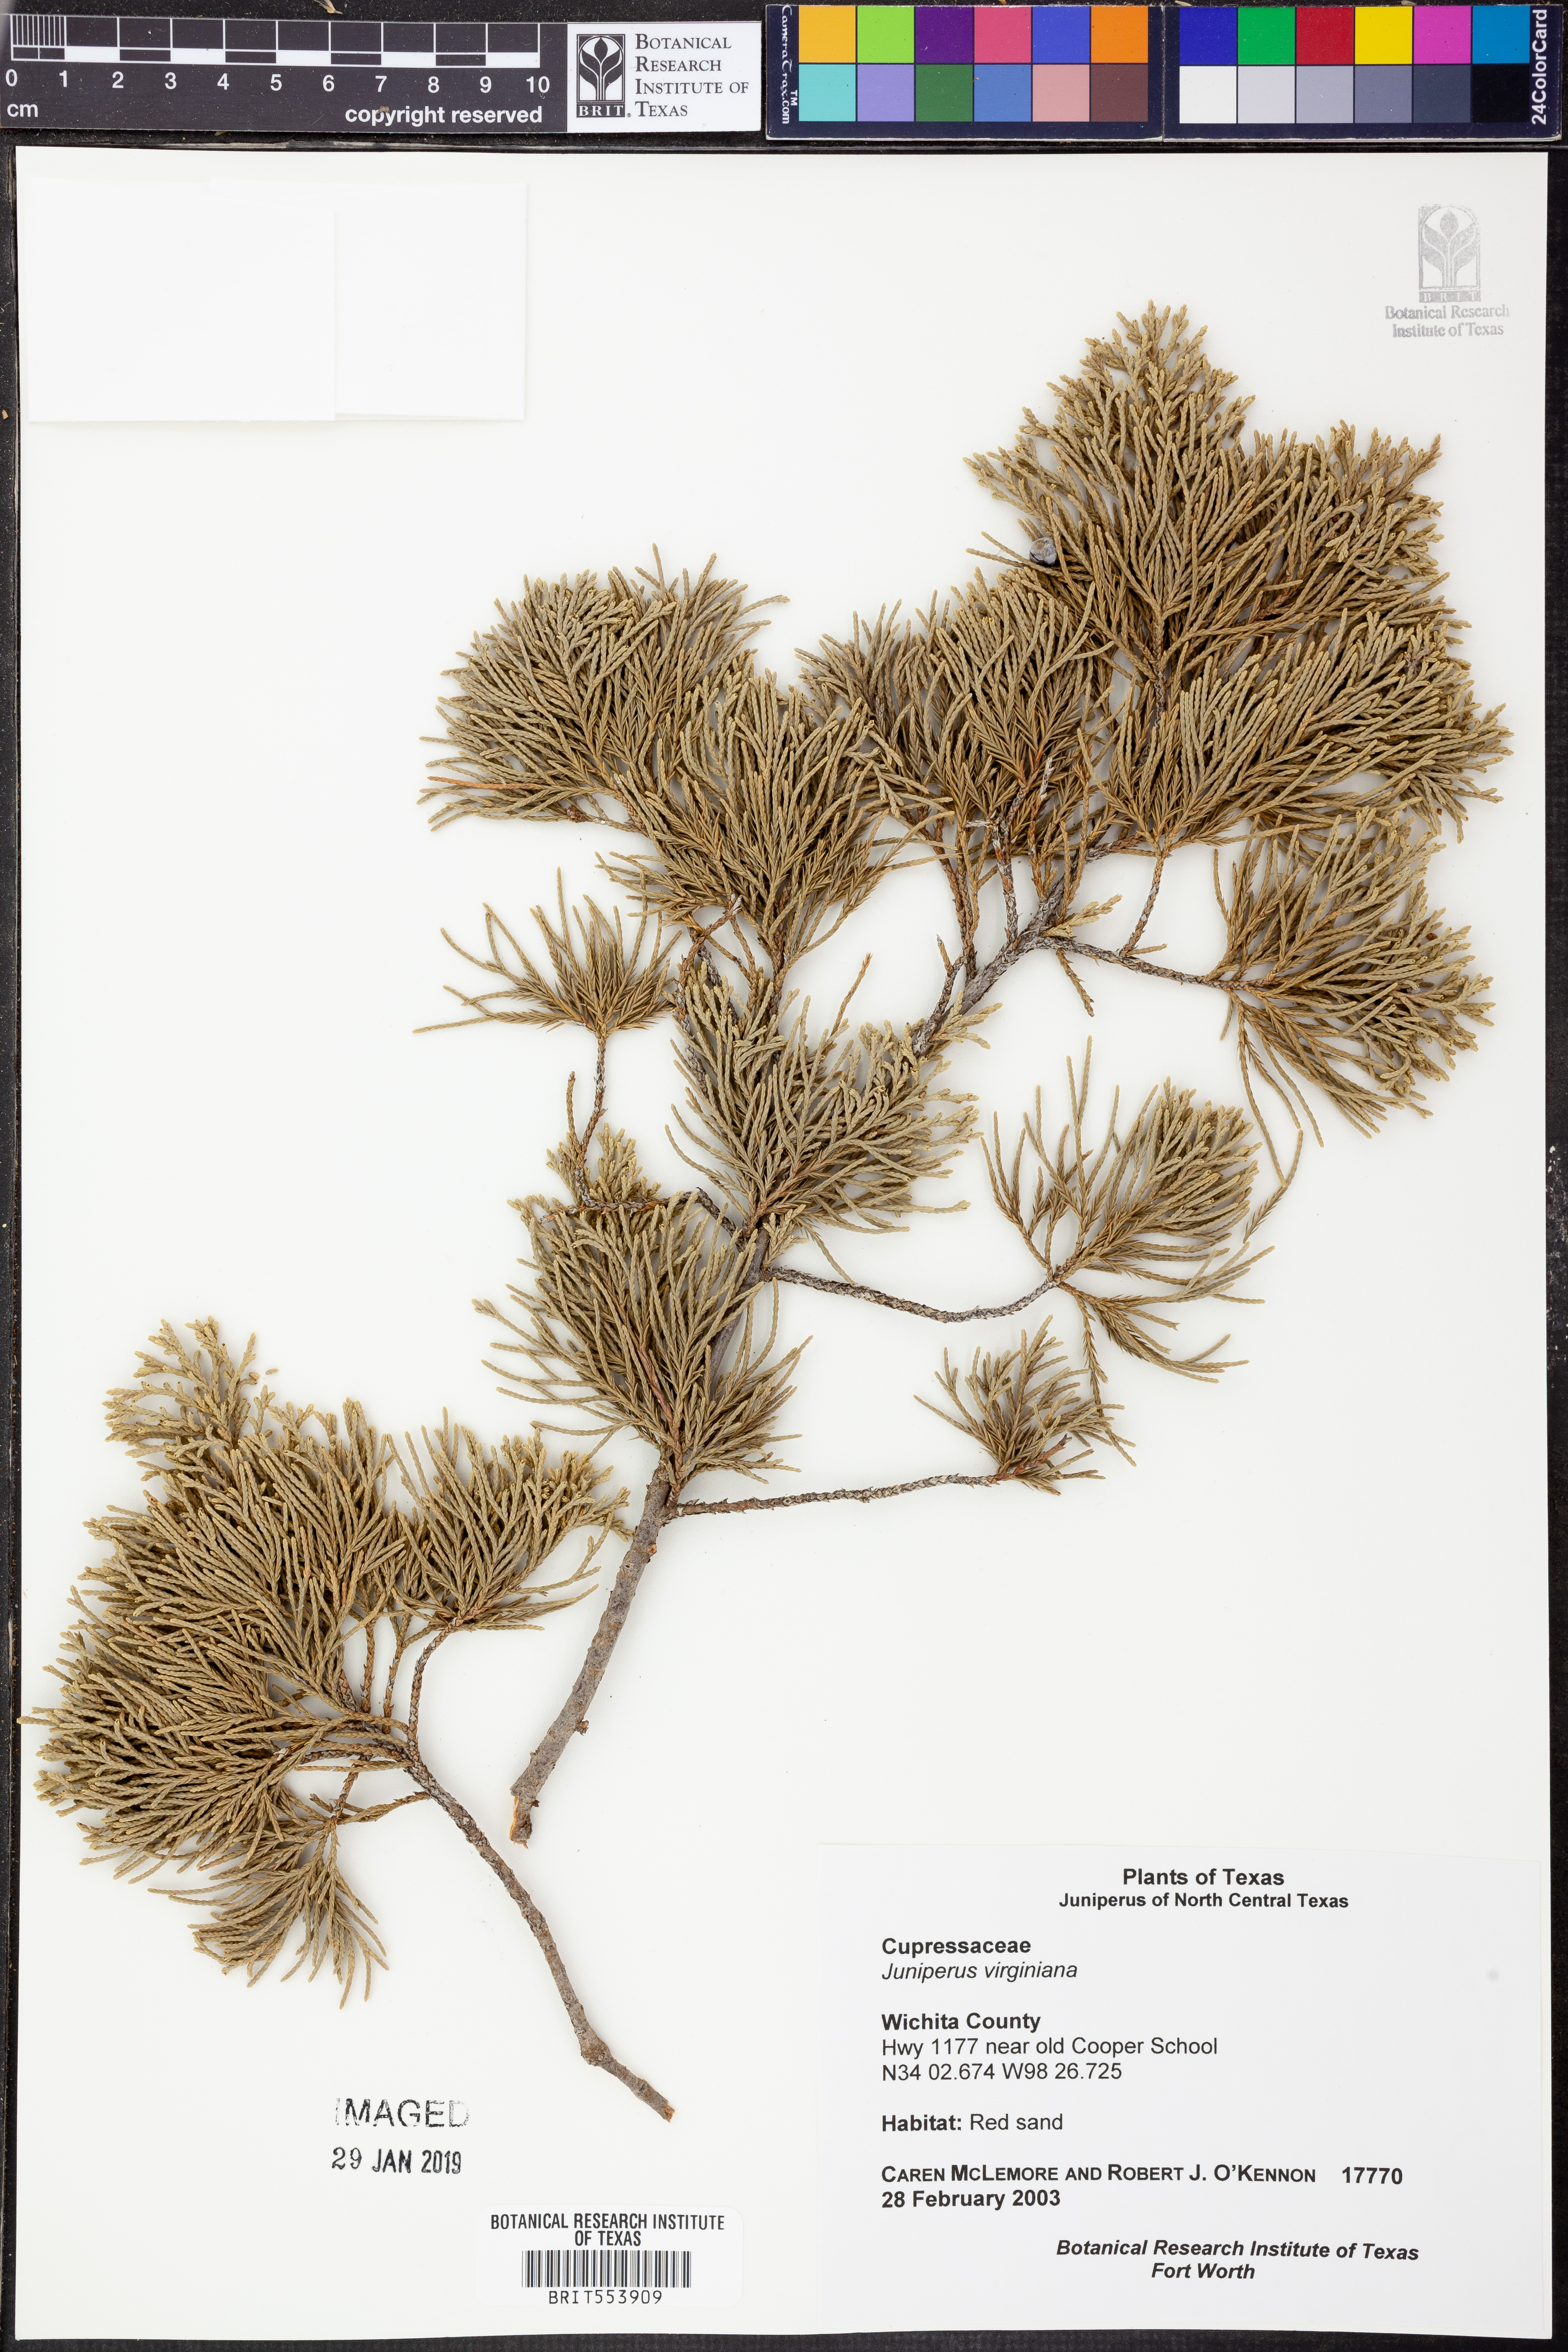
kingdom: Plantae
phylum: Tracheophyta
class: Pinopsida
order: Pinales
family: Cupressaceae
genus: Juniperus
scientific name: Juniperus virginiana
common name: Red juniper
